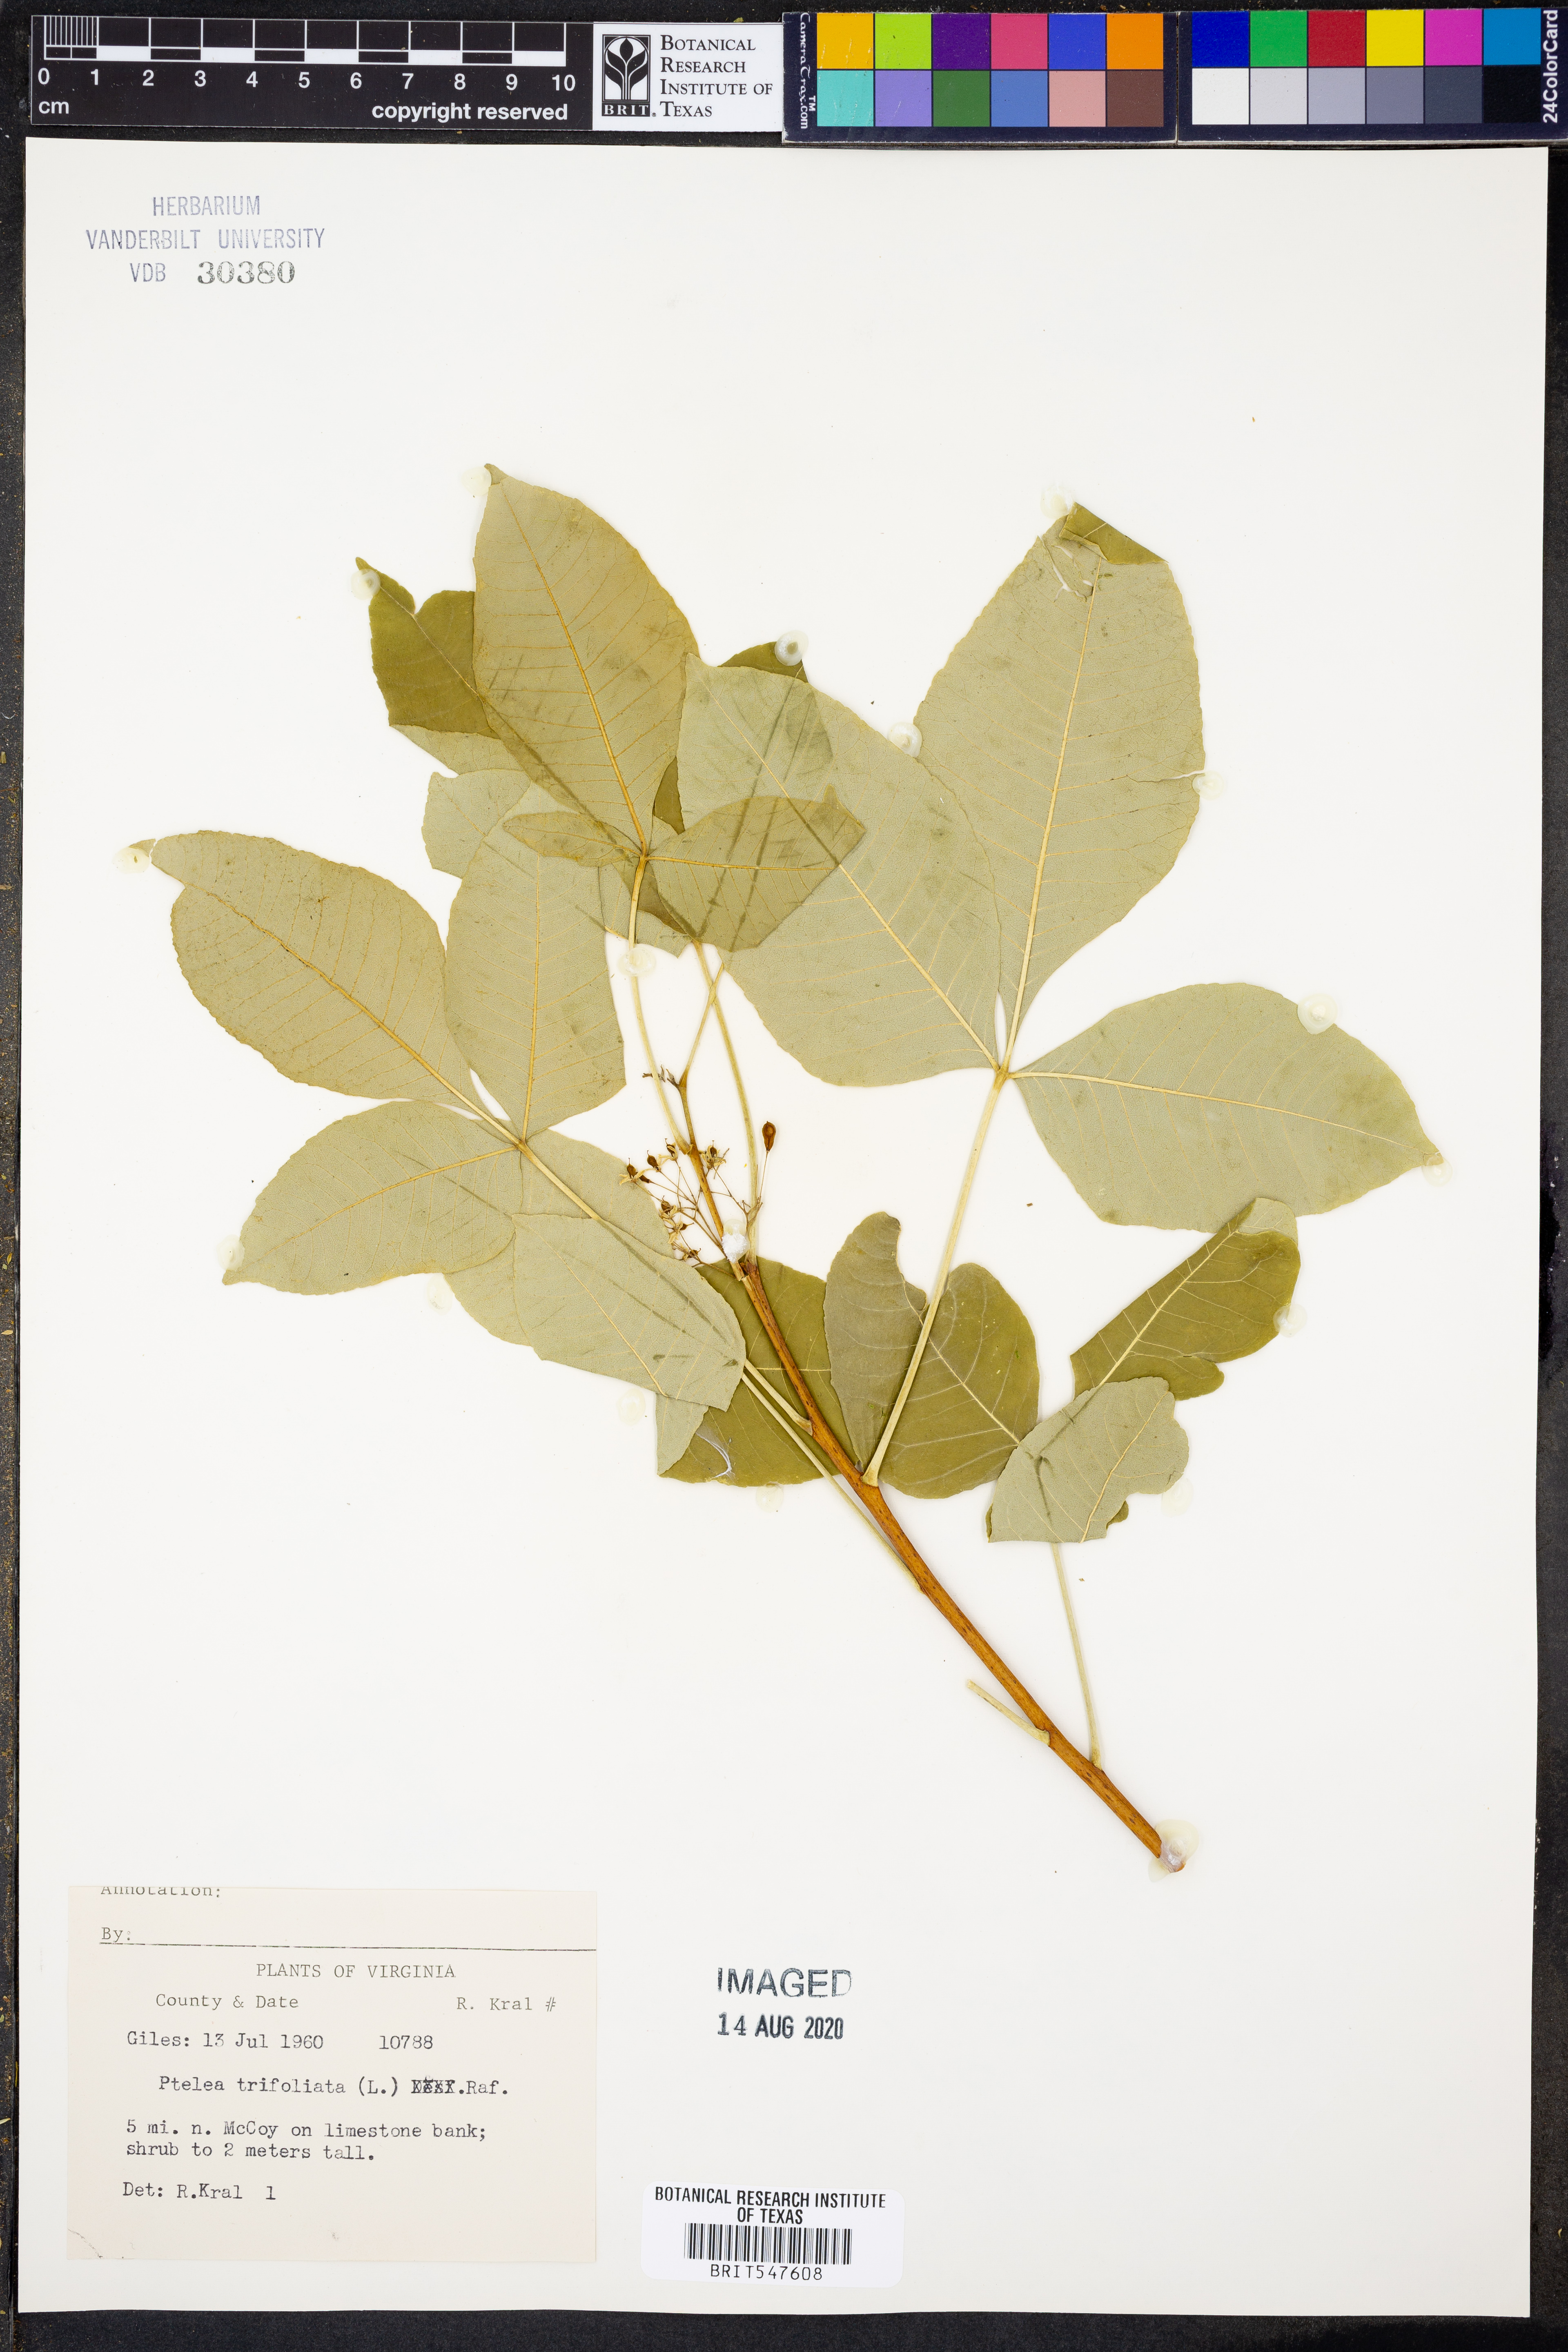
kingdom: Plantae
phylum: Tracheophyta
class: Magnoliopsida
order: Sapindales
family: Rutaceae
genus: Ptelea
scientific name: Ptelea trifoliata
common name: Common hop-tree
